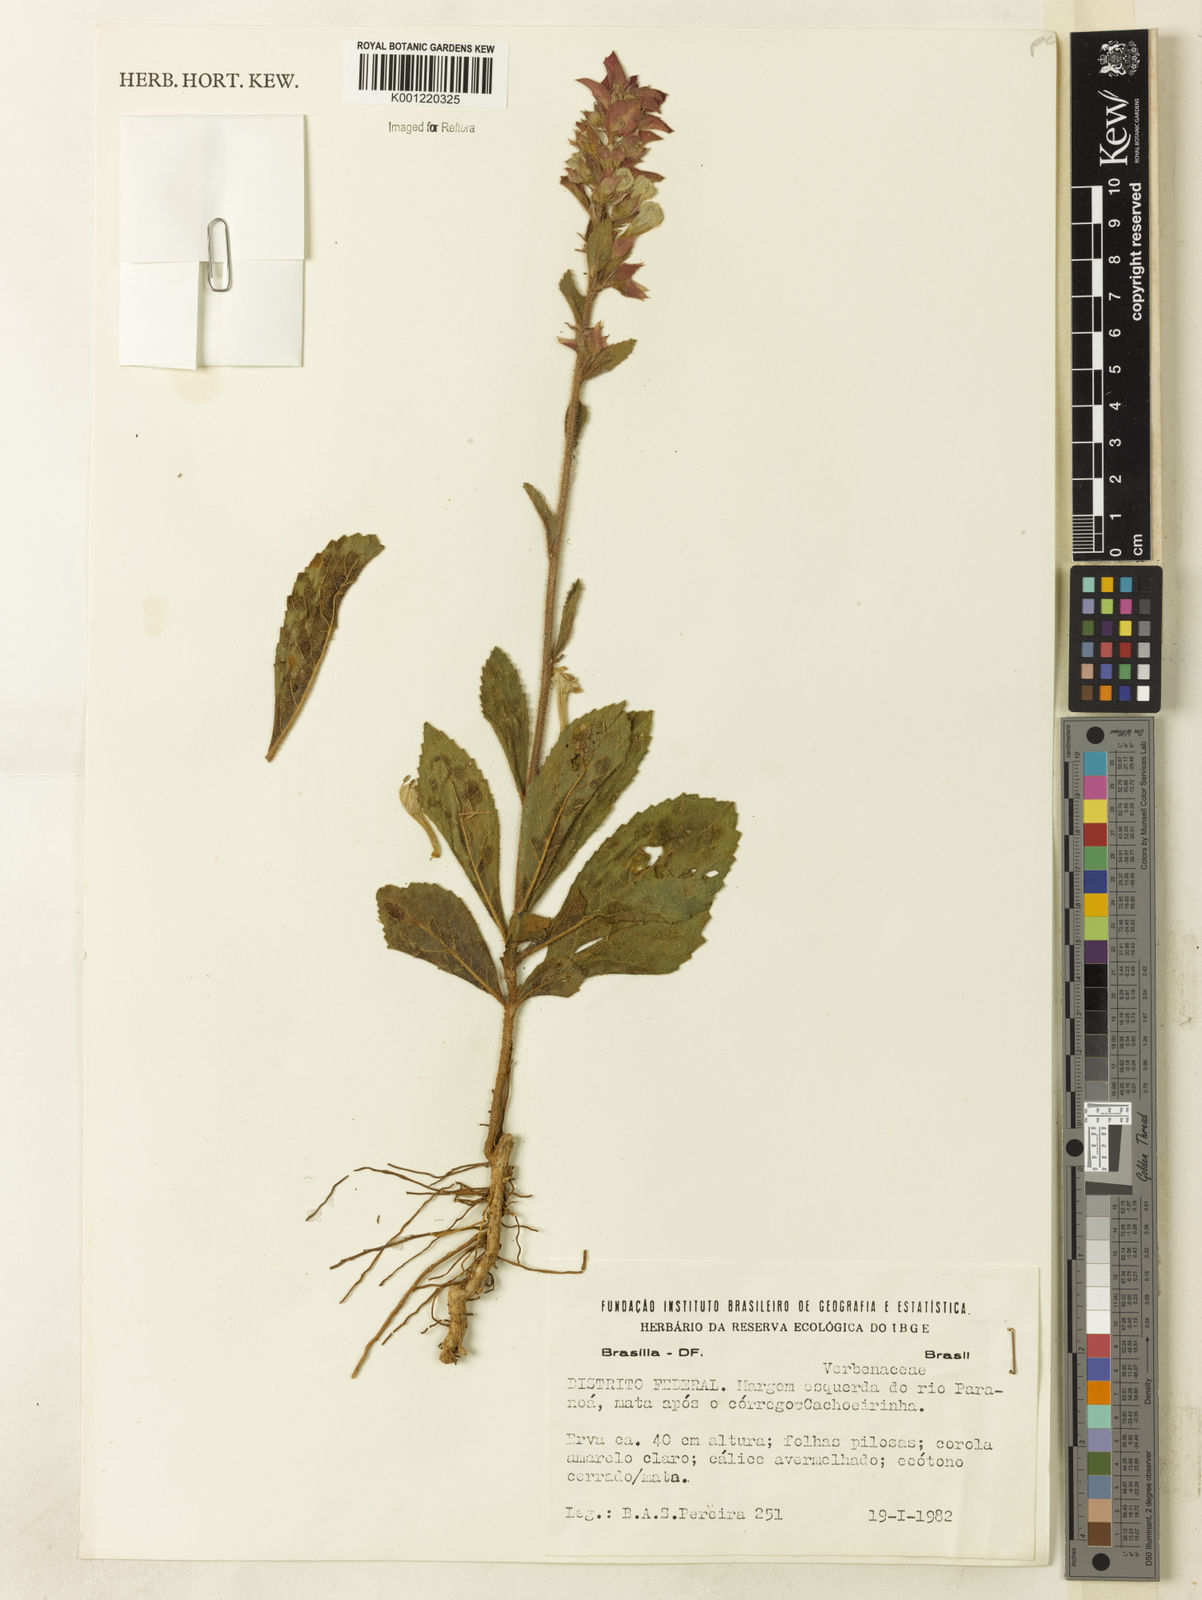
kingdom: Plantae
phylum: Tracheophyta
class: Magnoliopsida
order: Lamiales
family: Lamiaceae
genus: Amasonia
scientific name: Amasonia campestris
